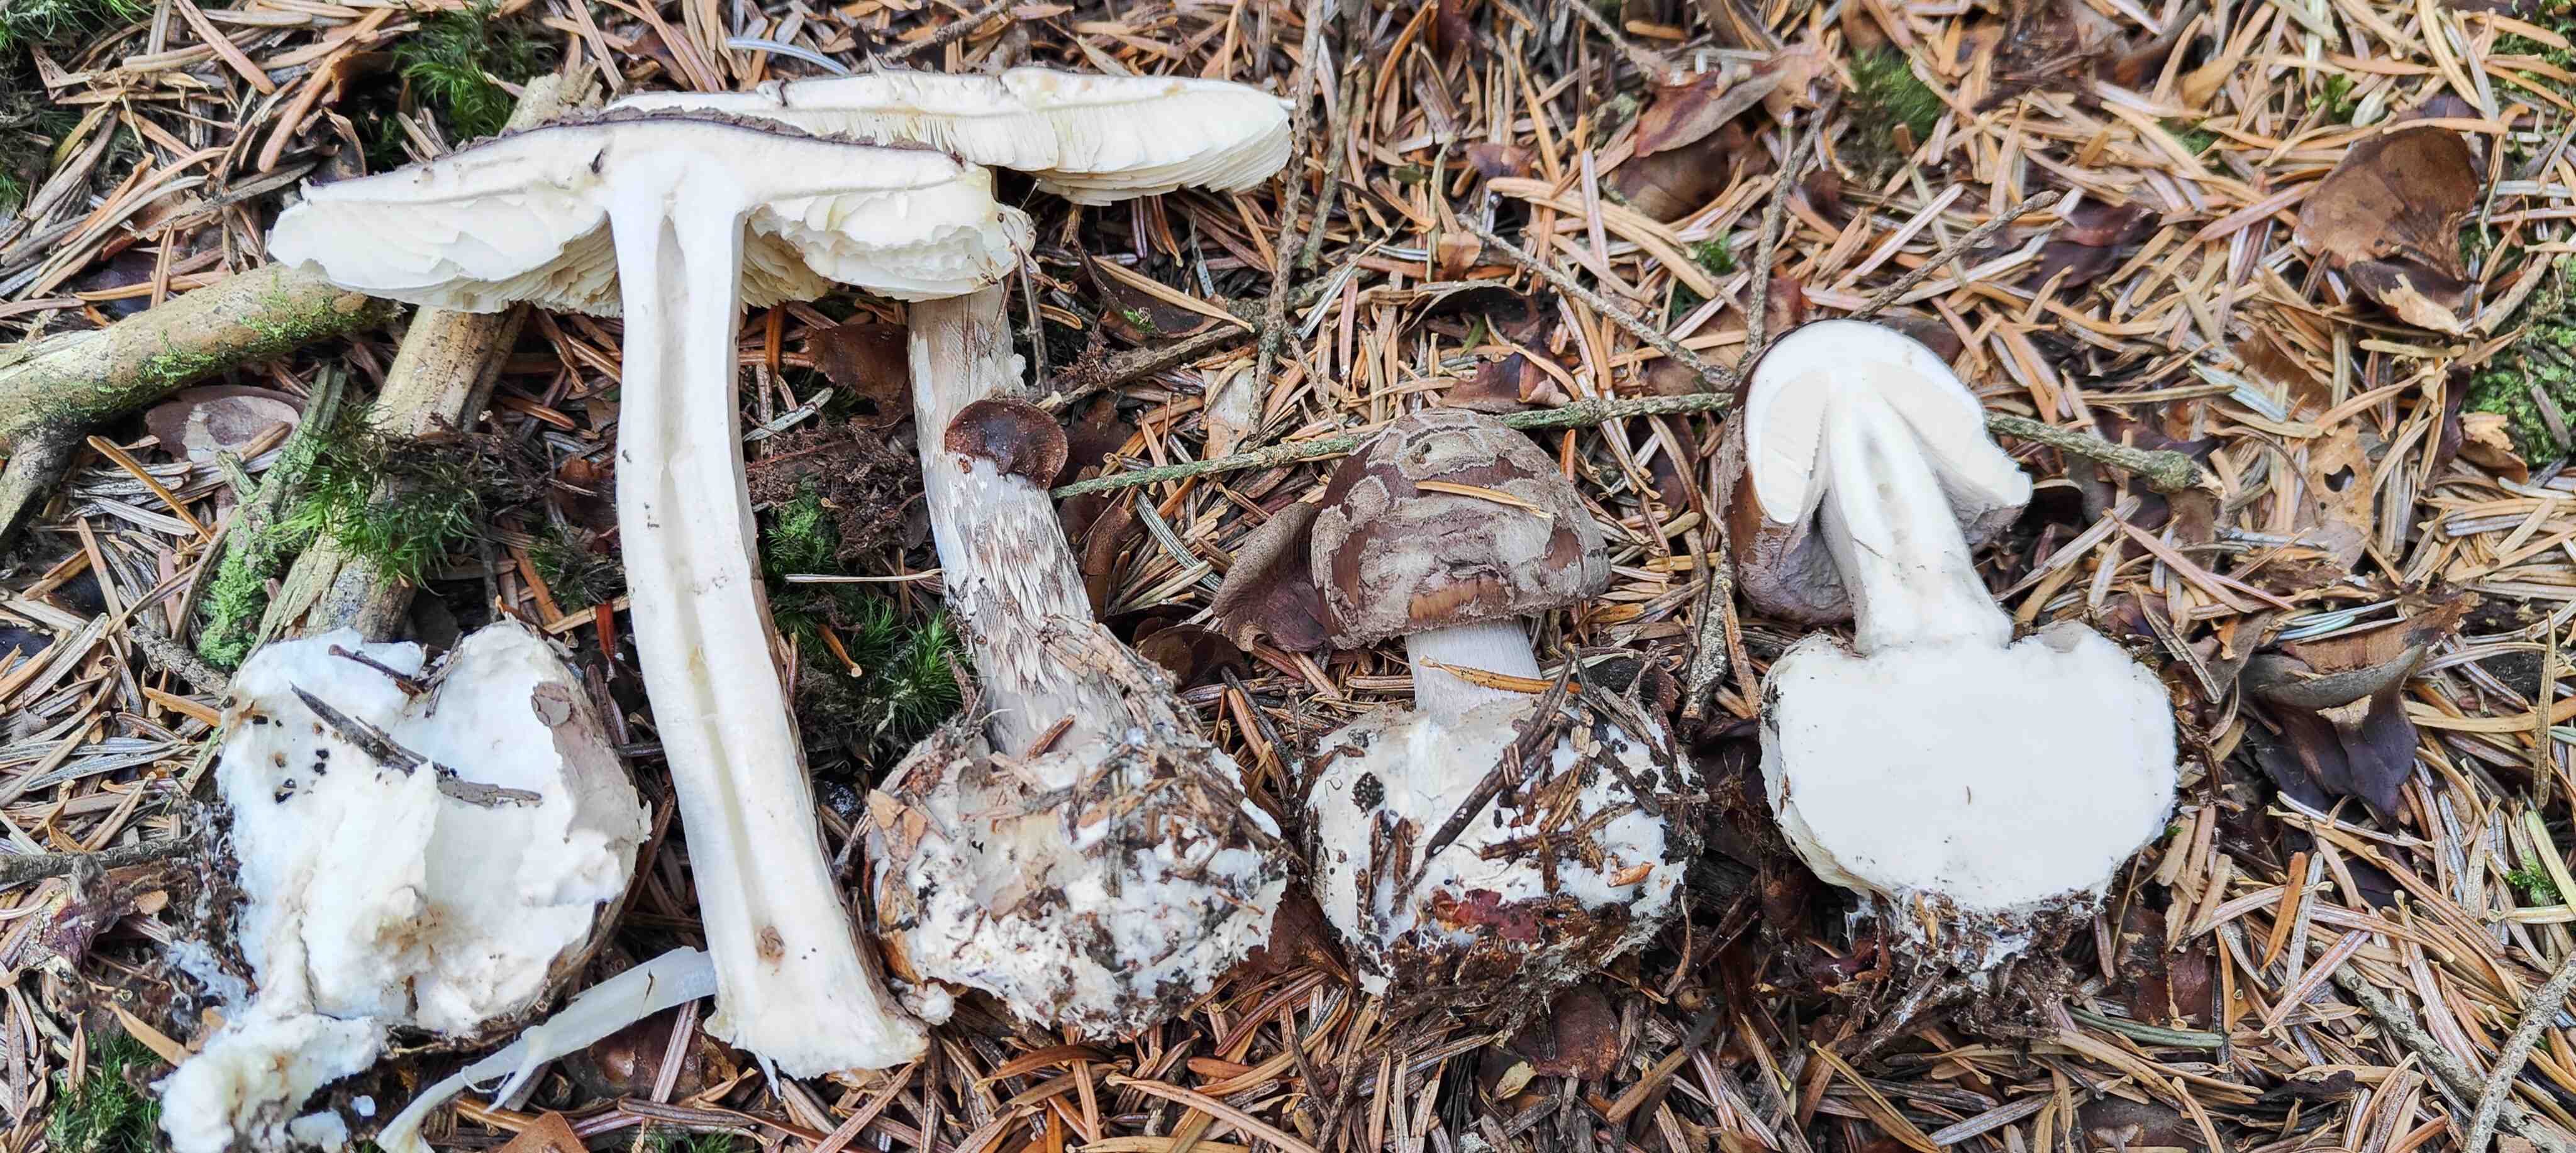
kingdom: Fungi
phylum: Basidiomycota
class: Agaricomycetes
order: Agaricales
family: Amanitaceae
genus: Amanita
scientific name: Amanita porphyria
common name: porfyr-fluesvamp
